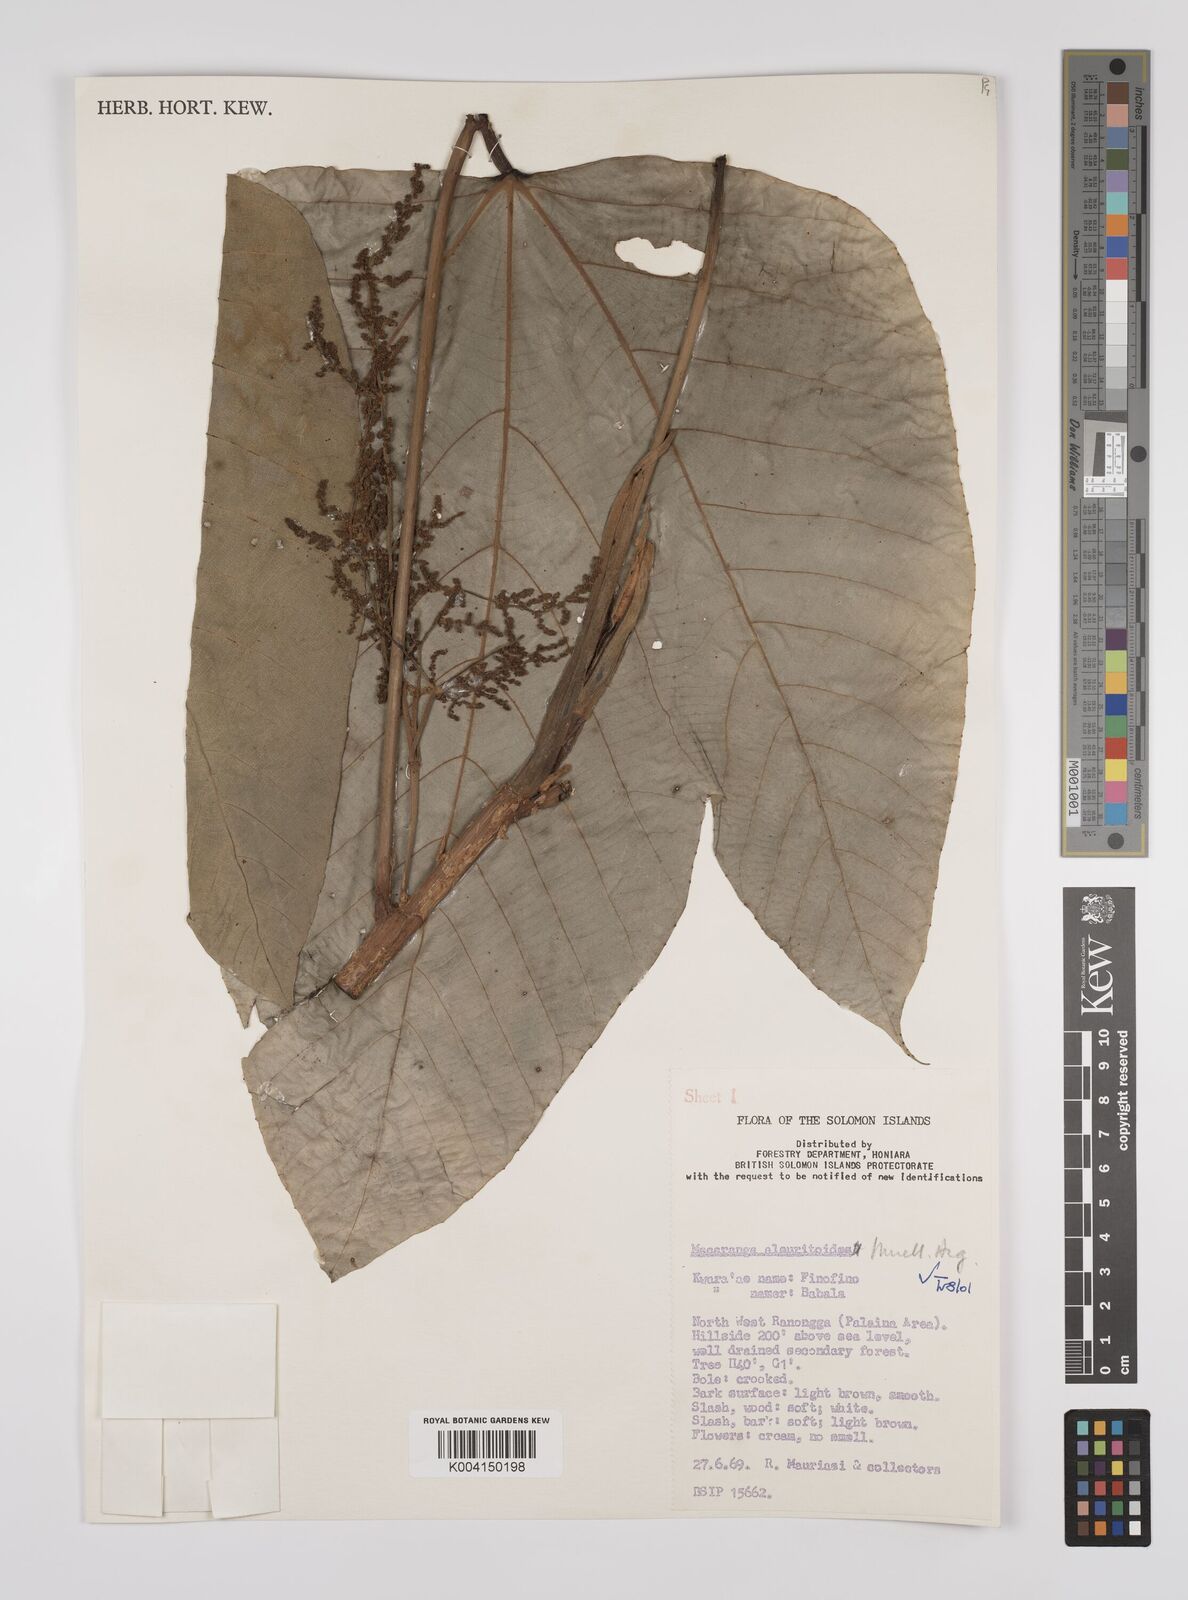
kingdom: Plantae
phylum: Tracheophyta
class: Magnoliopsida
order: Malpighiales
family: Euphorbiaceae
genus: Macaranga
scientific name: Macaranga aleuritoides
